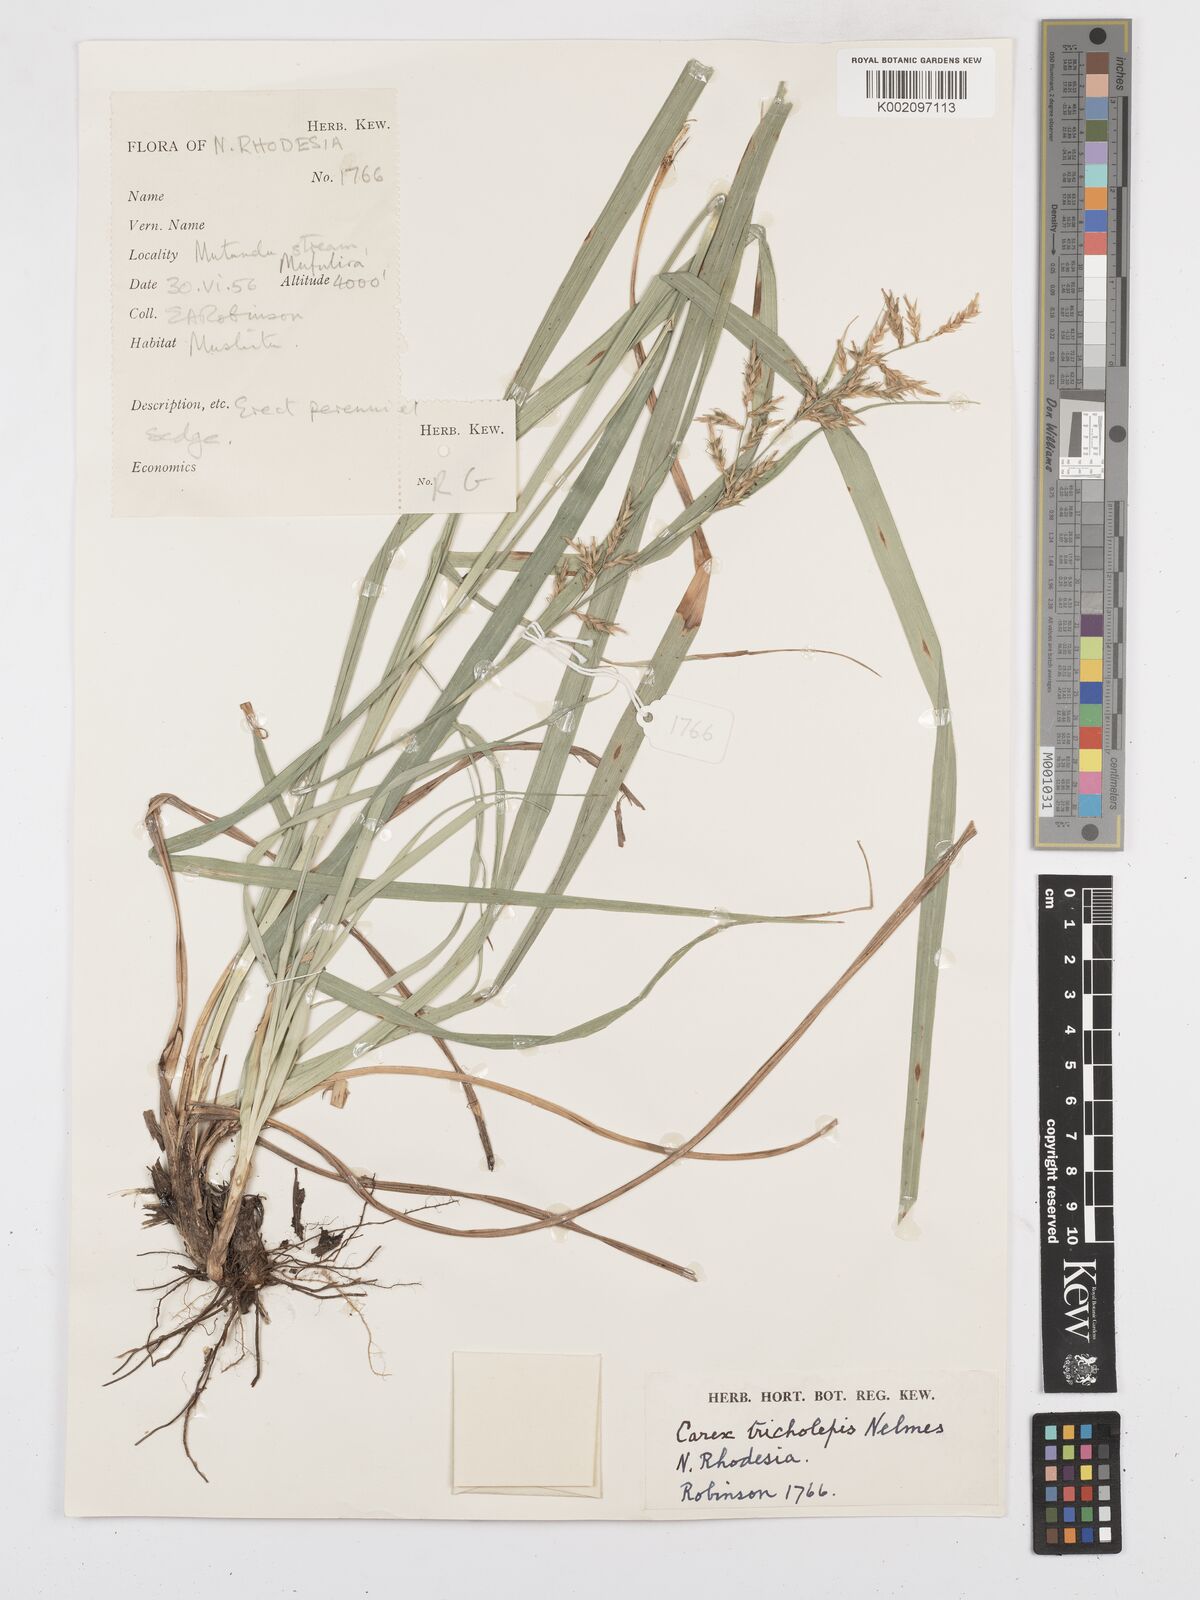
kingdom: Plantae
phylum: Tracheophyta
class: Liliopsida
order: Poales
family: Cyperaceae
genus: Carex
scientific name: Carex tricholepis
